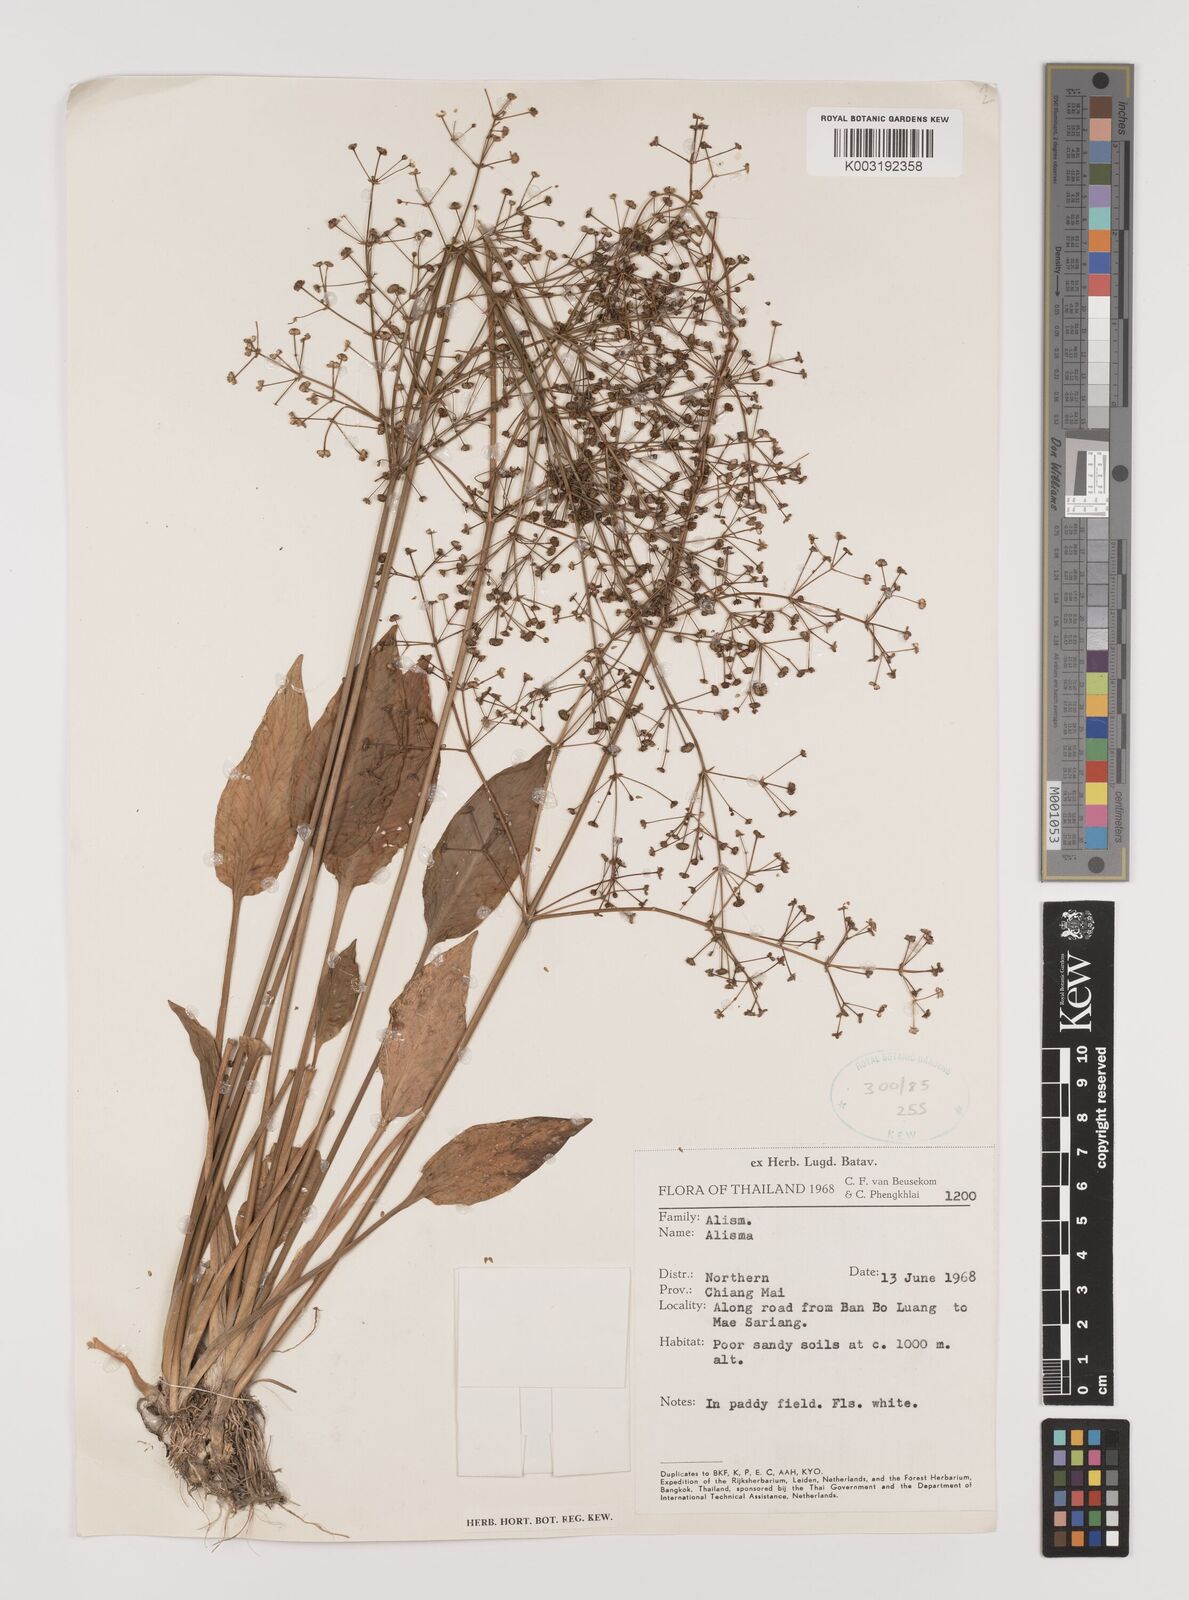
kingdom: Plantae
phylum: Tracheophyta
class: Liliopsida
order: Alismatales
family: Alismataceae
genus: Alisma
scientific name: Alisma plantago-aquatica
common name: Water-plantain
